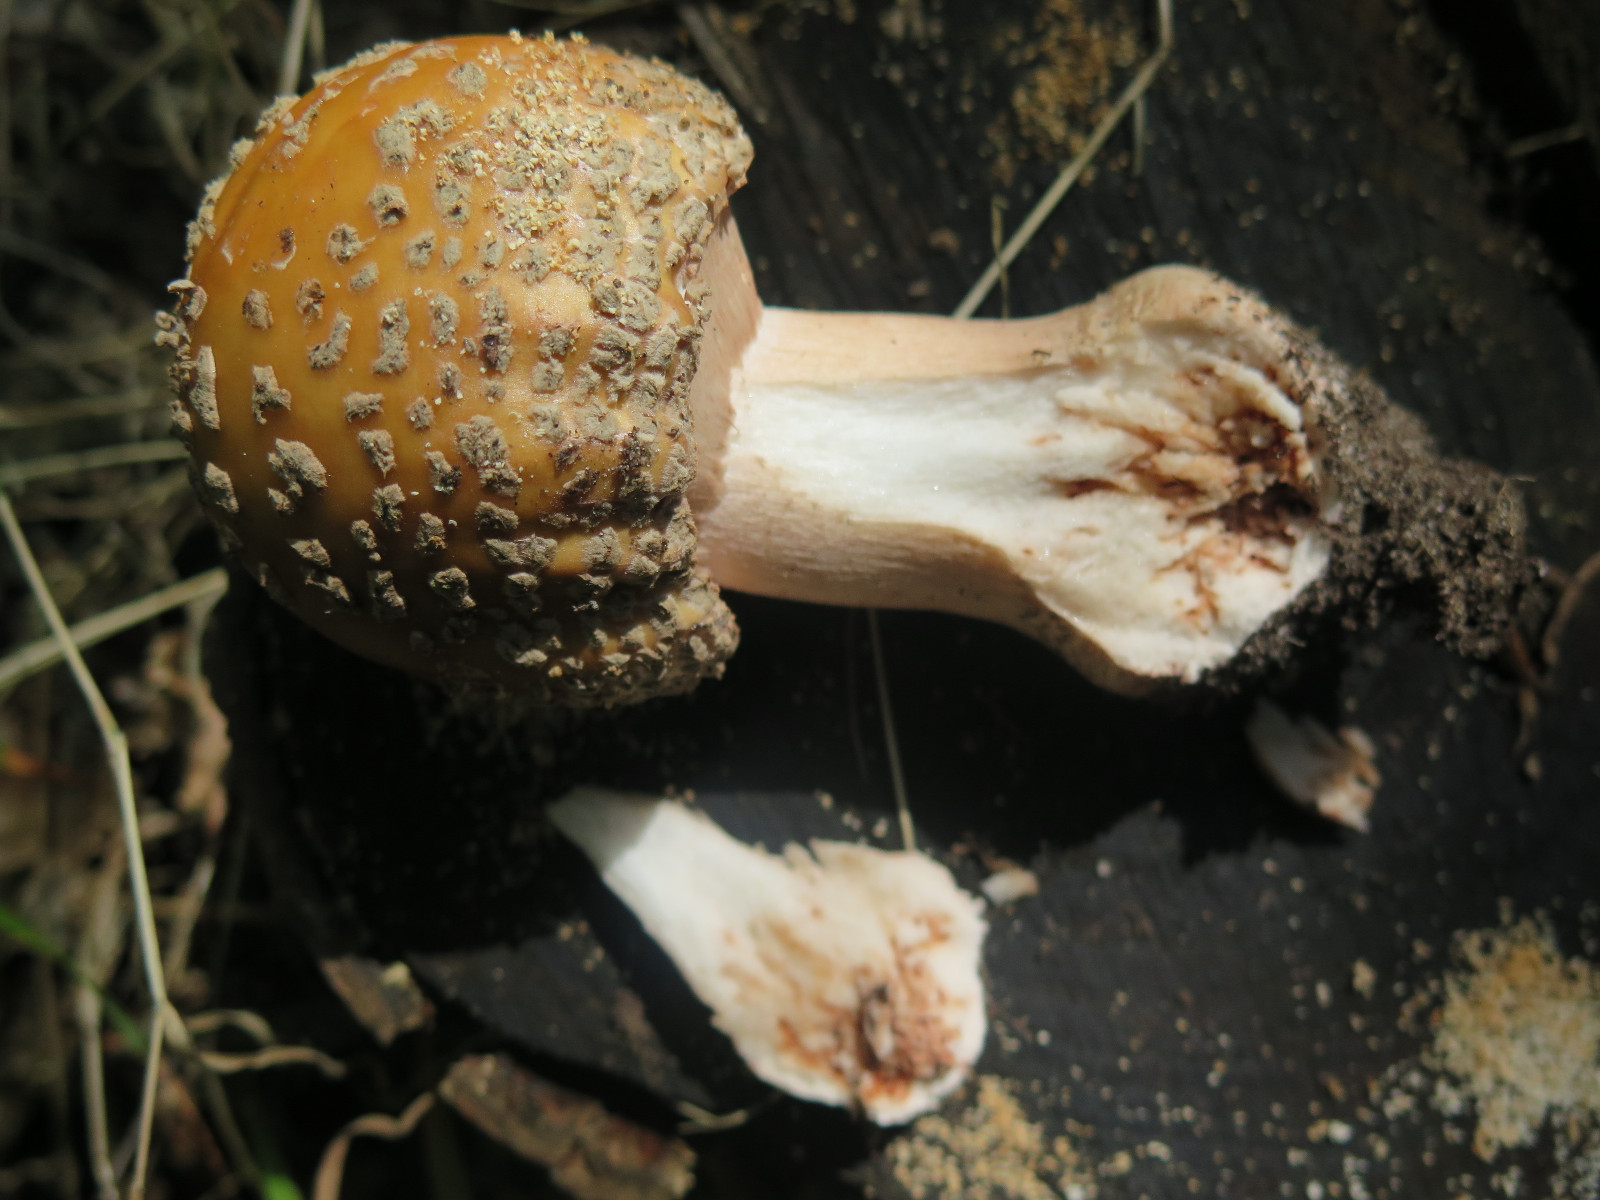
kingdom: Fungi
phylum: Basidiomycota
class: Agaricomycetes
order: Agaricales
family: Amanitaceae
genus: Amanita
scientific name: Amanita rubescens
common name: rødmende fluesvamp
